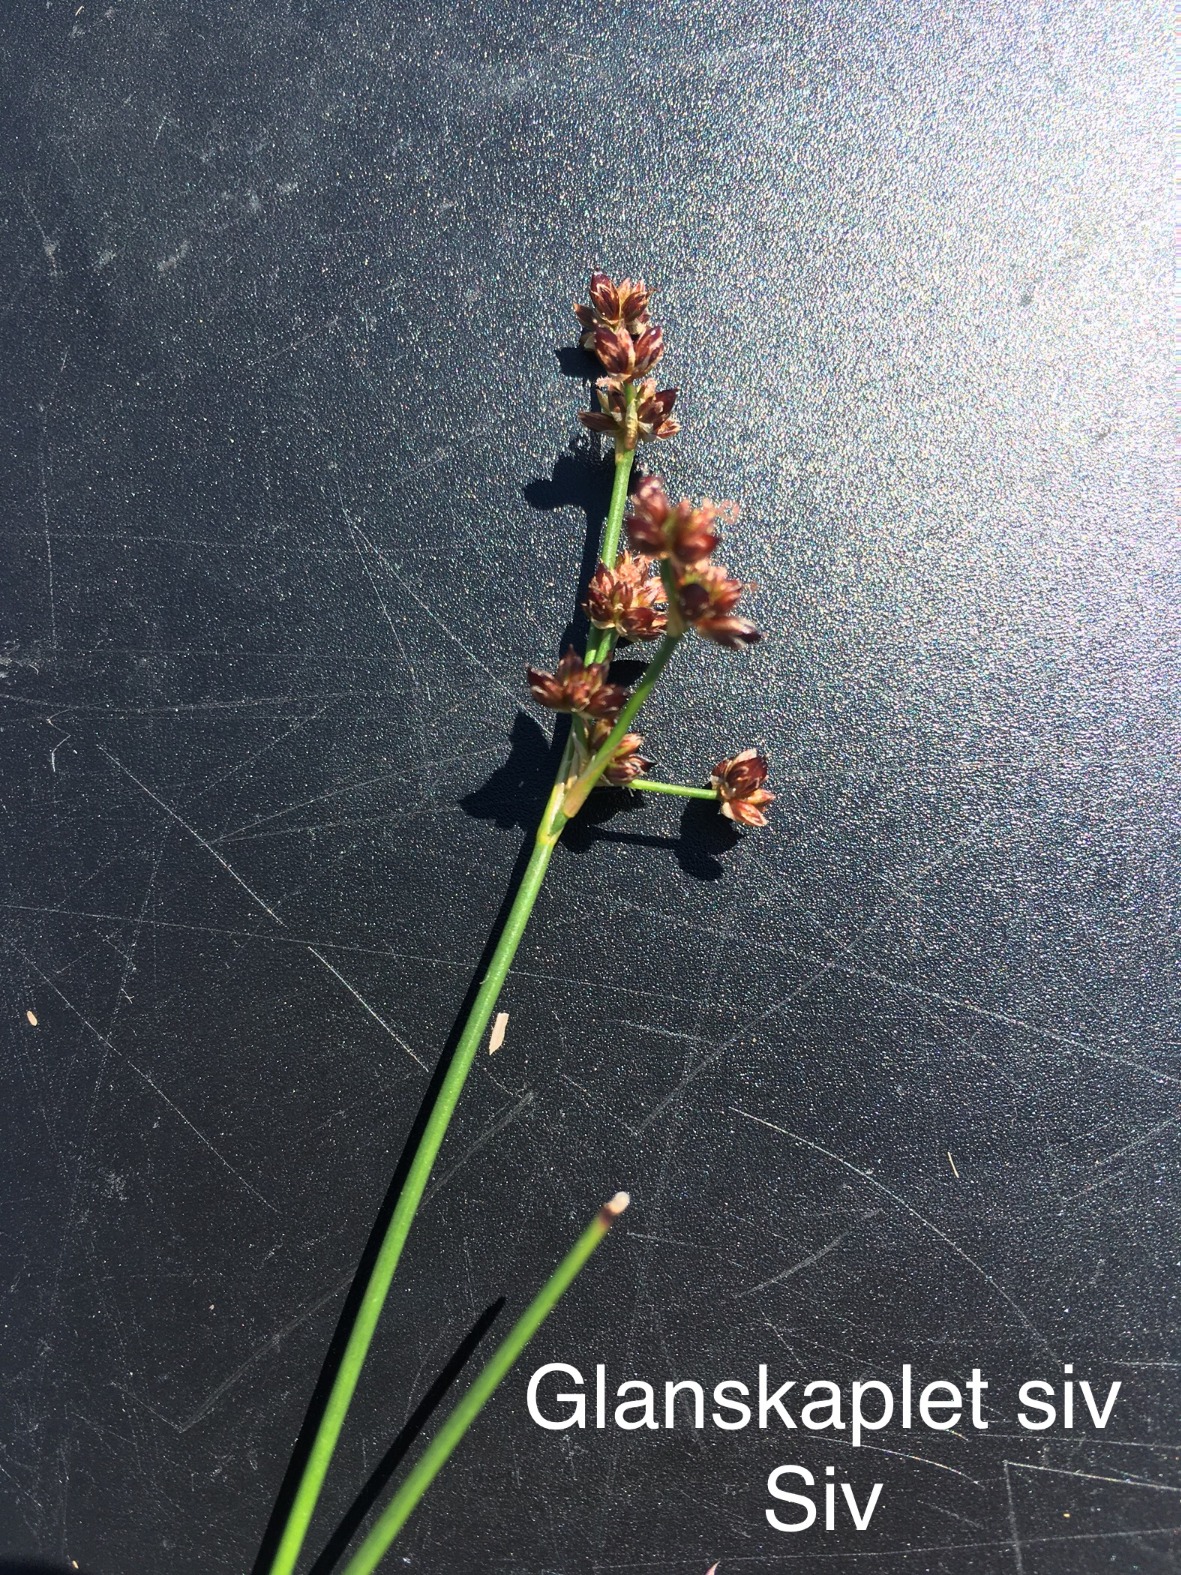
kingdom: Plantae
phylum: Tracheophyta
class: Liliopsida
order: Poales
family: Juncaceae
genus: Juncus
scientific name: Juncus articulatus
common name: Glanskapslet siv
